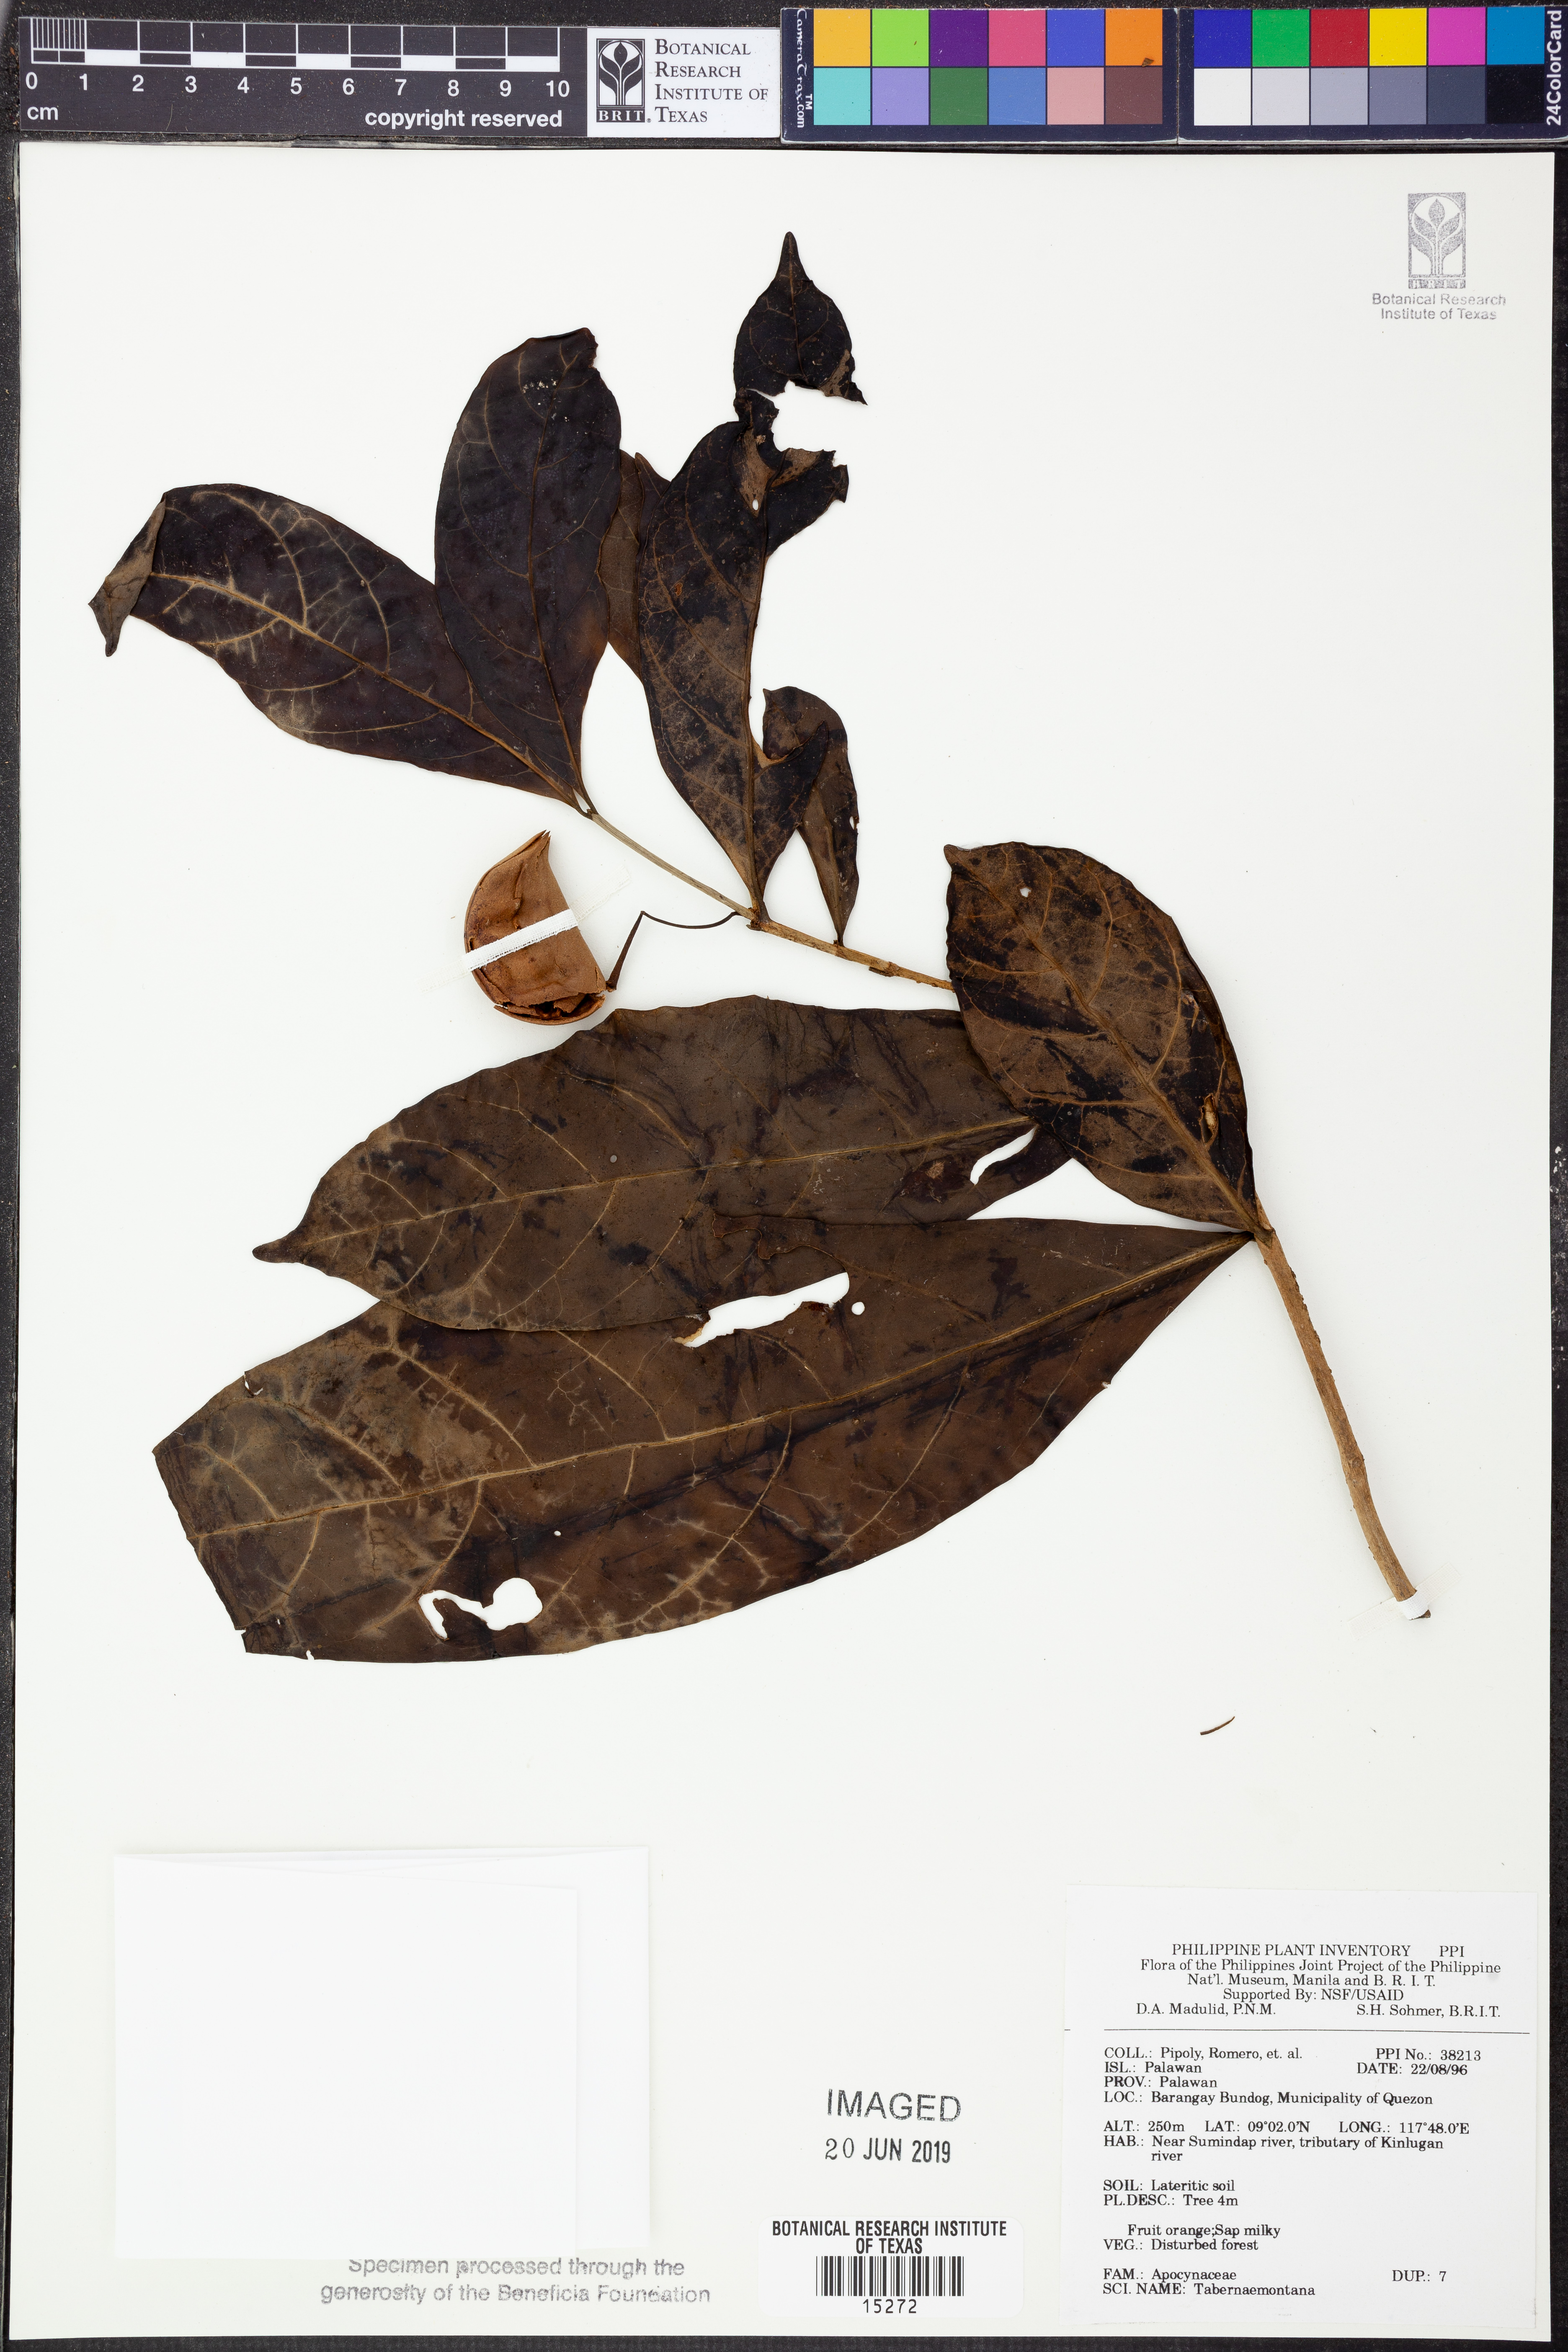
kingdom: Plantae
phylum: Tracheophyta
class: Magnoliopsida
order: Gentianales
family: Apocynaceae
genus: Tabernaemontana
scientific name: Tabernaemontana
